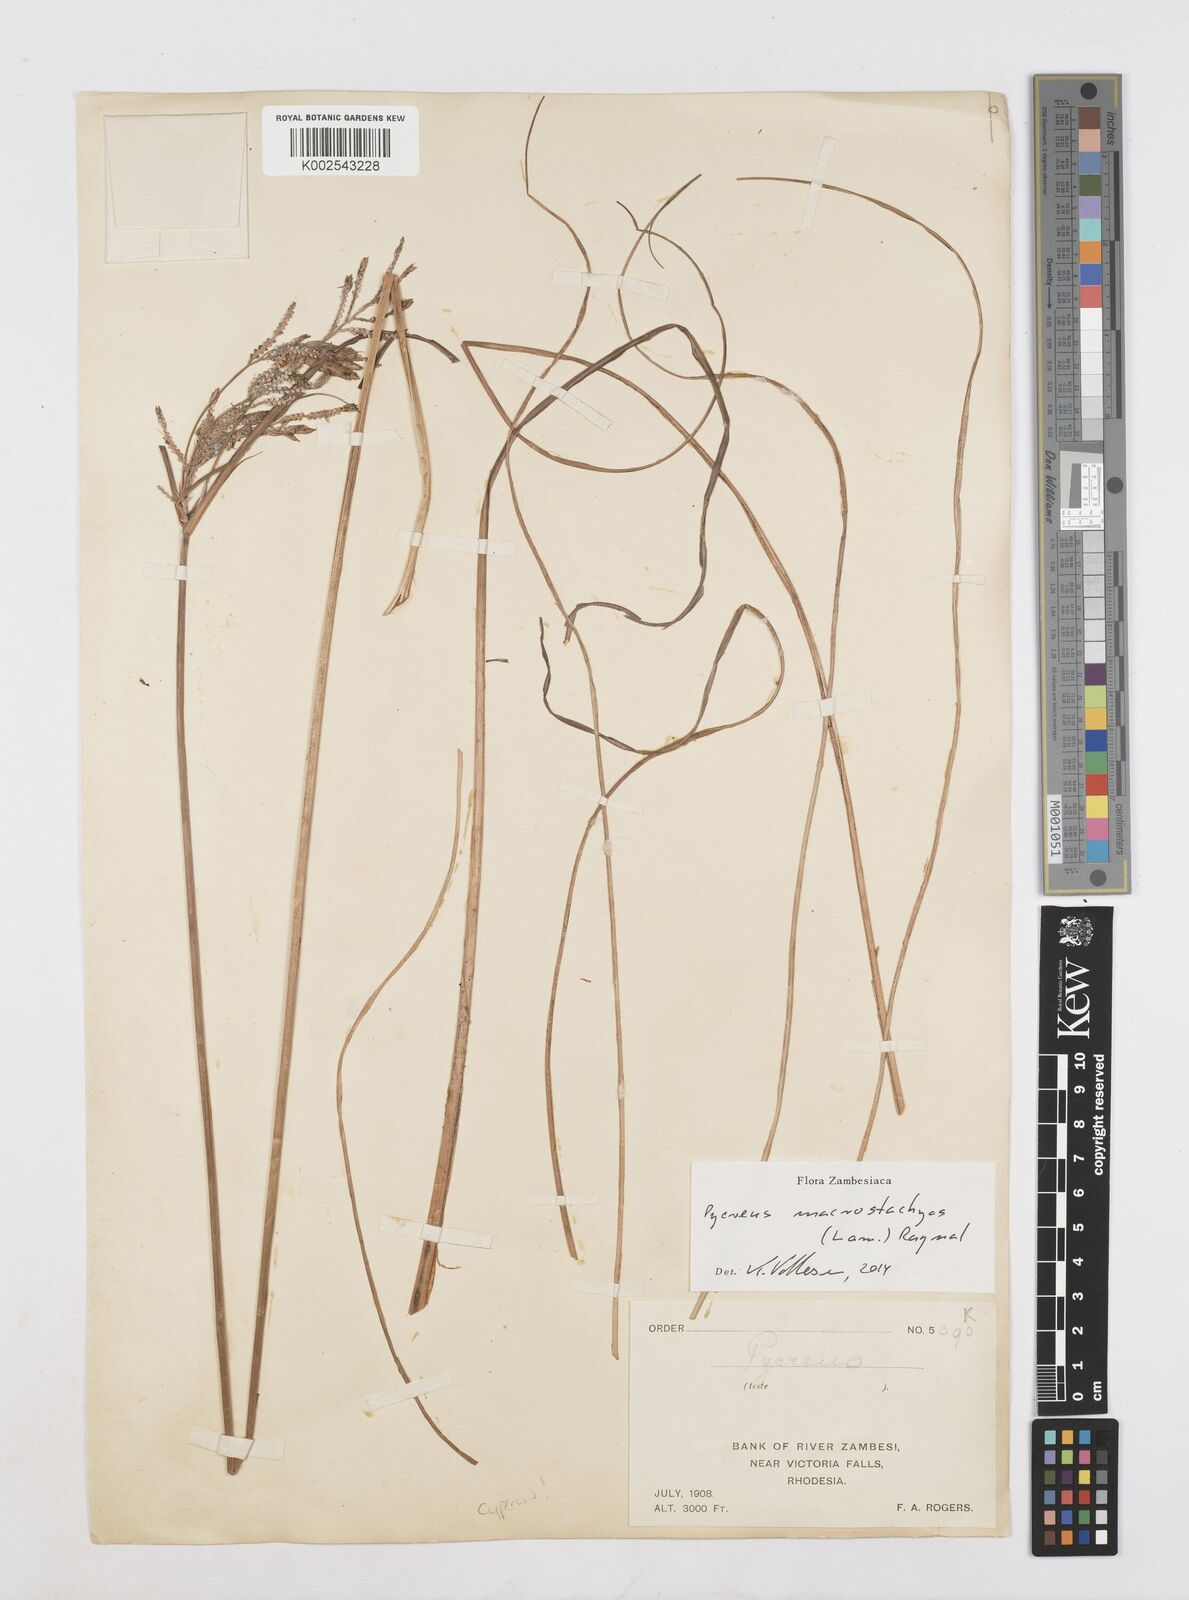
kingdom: Plantae
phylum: Tracheophyta
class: Liliopsida
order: Poales
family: Cyperaceae
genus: Cyperus
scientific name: Cyperus macrostachyos
